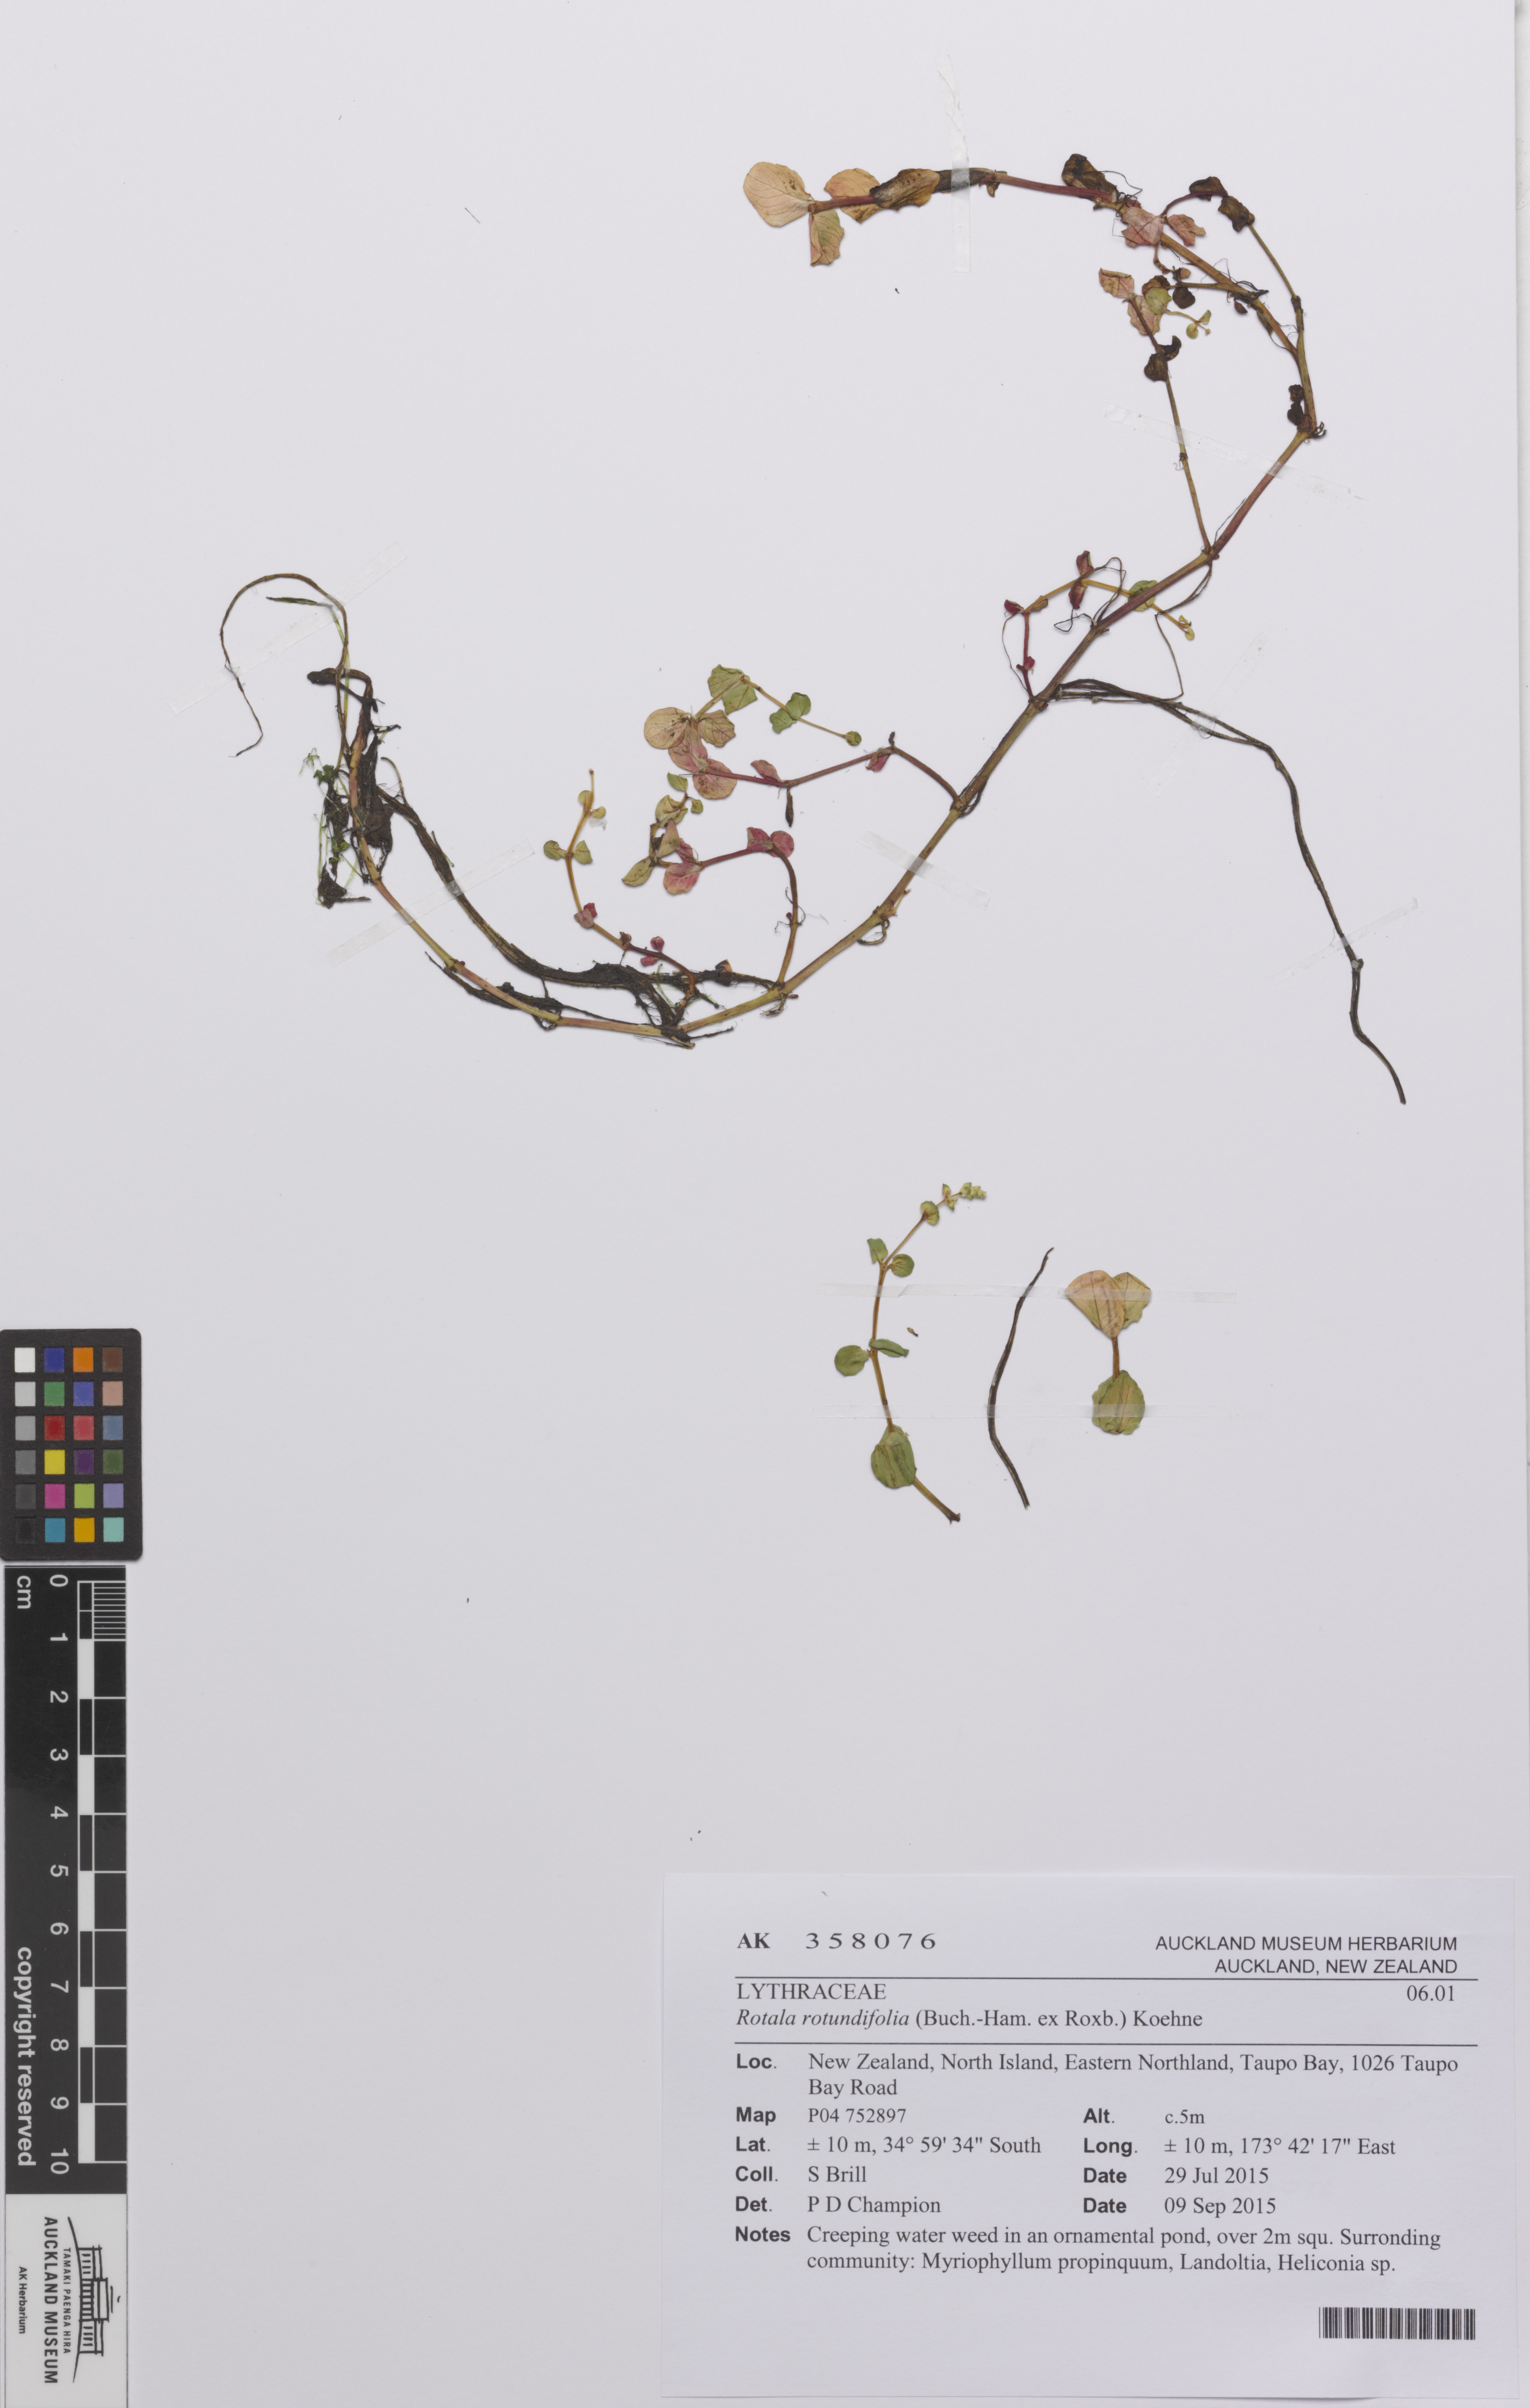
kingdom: Plantae
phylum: Tracheophyta
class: Magnoliopsida
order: Myrtales
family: Lythraceae
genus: Rotala
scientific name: Rotala rotundifolia
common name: Roundleaf toothcup
